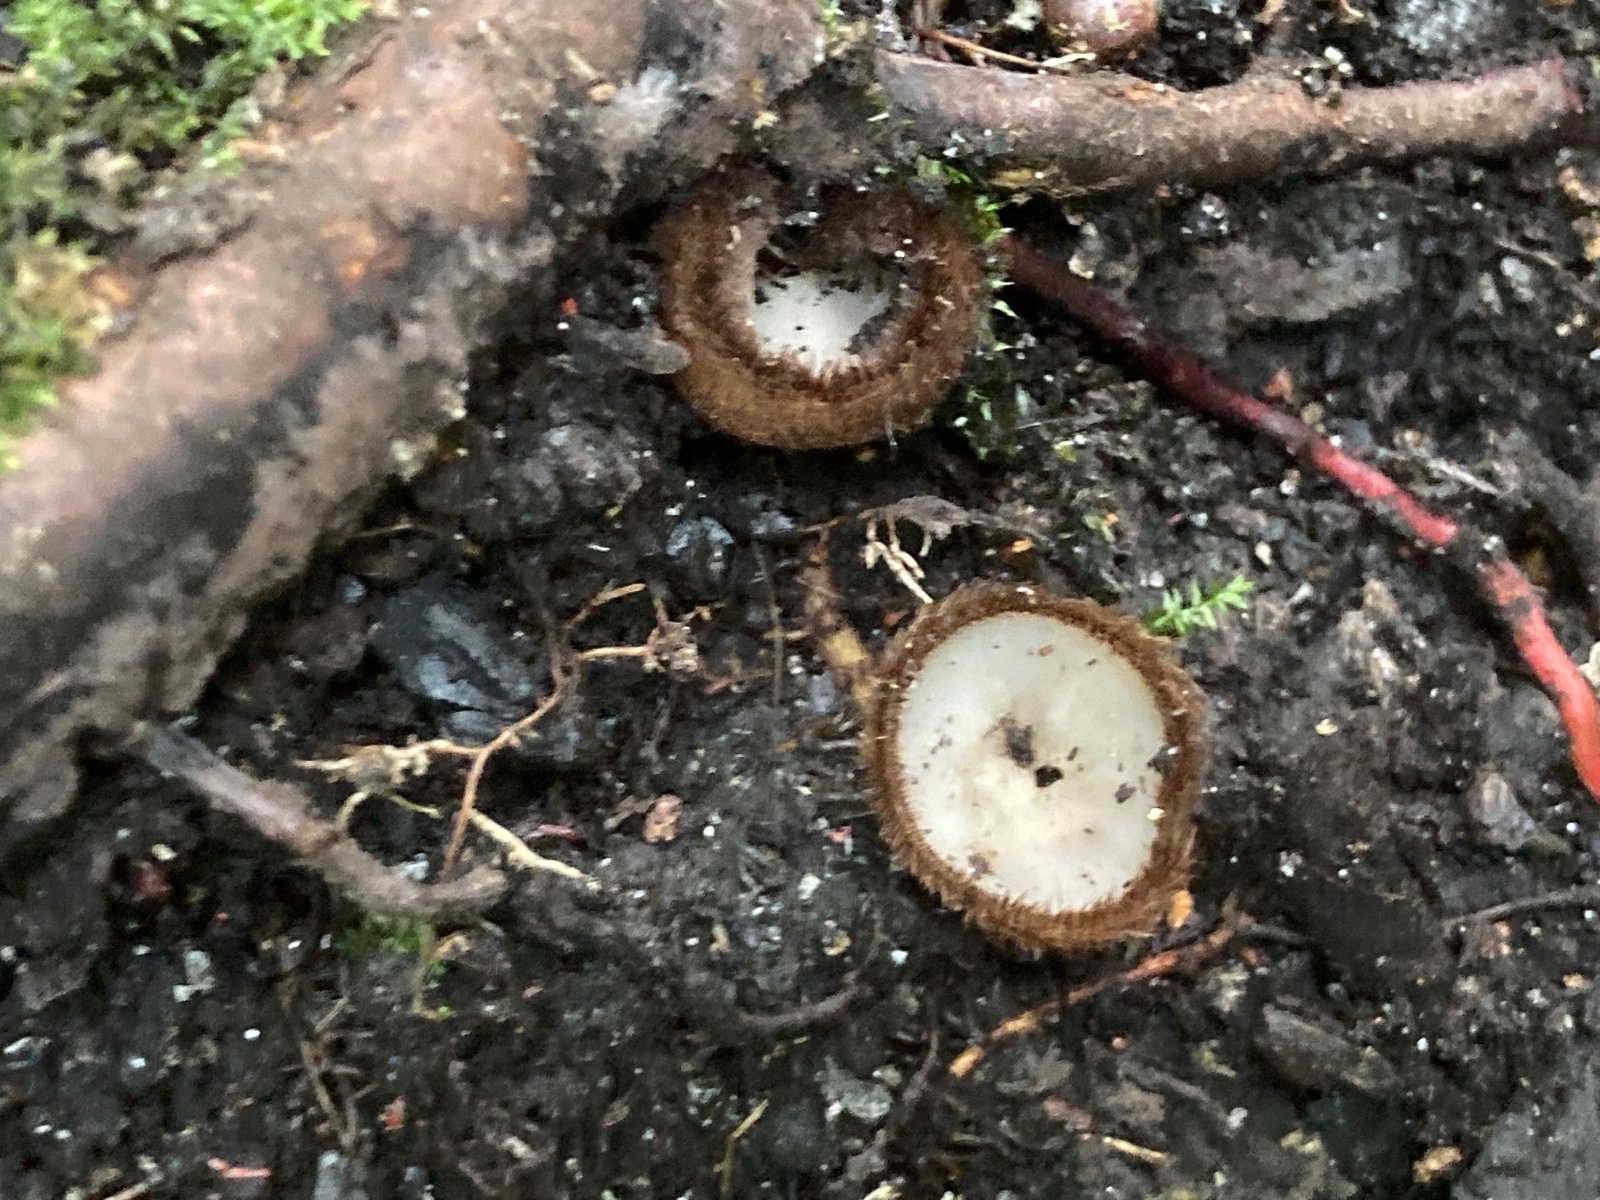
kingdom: Fungi
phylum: Ascomycota
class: Pezizomycetes
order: Pezizales
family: Pyronemataceae
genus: Humaria
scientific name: Humaria hemisphaerica
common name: halvkugleformet børstebæger
